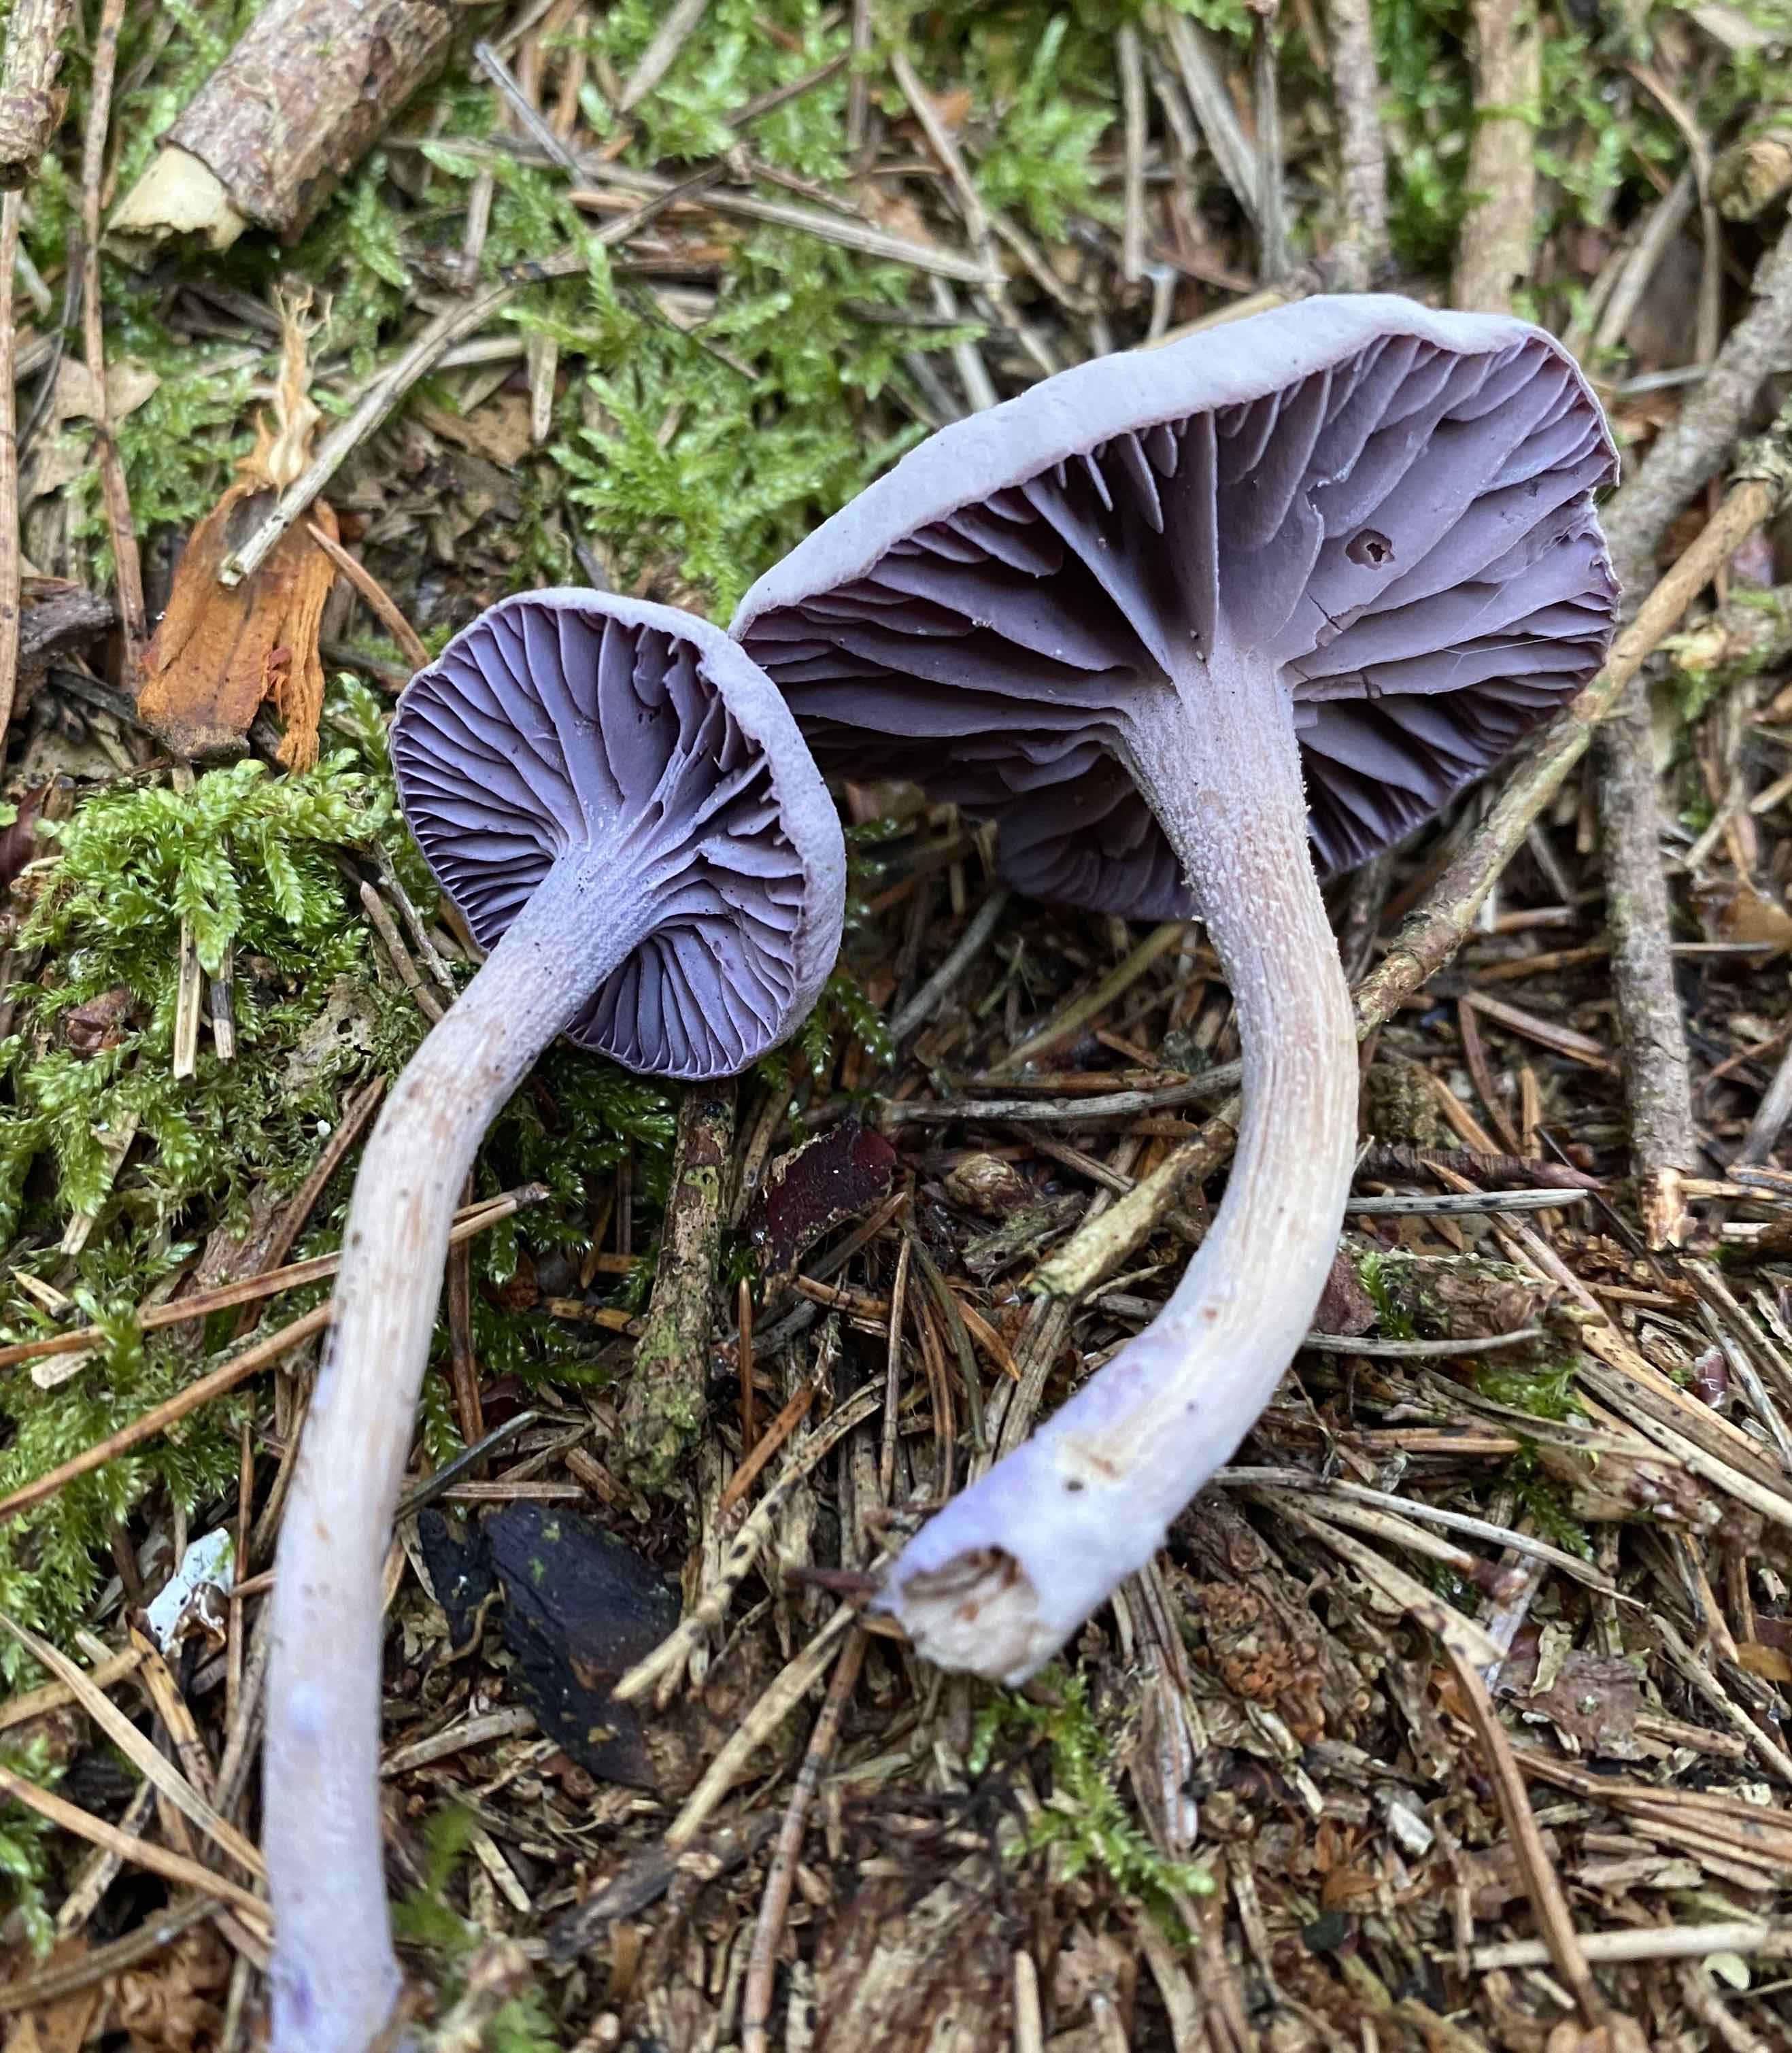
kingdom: Fungi
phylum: Basidiomycota
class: Agaricomycetes
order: Agaricales
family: Hydnangiaceae
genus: Laccaria
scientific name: Laccaria amethystina
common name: violet ametysthat
